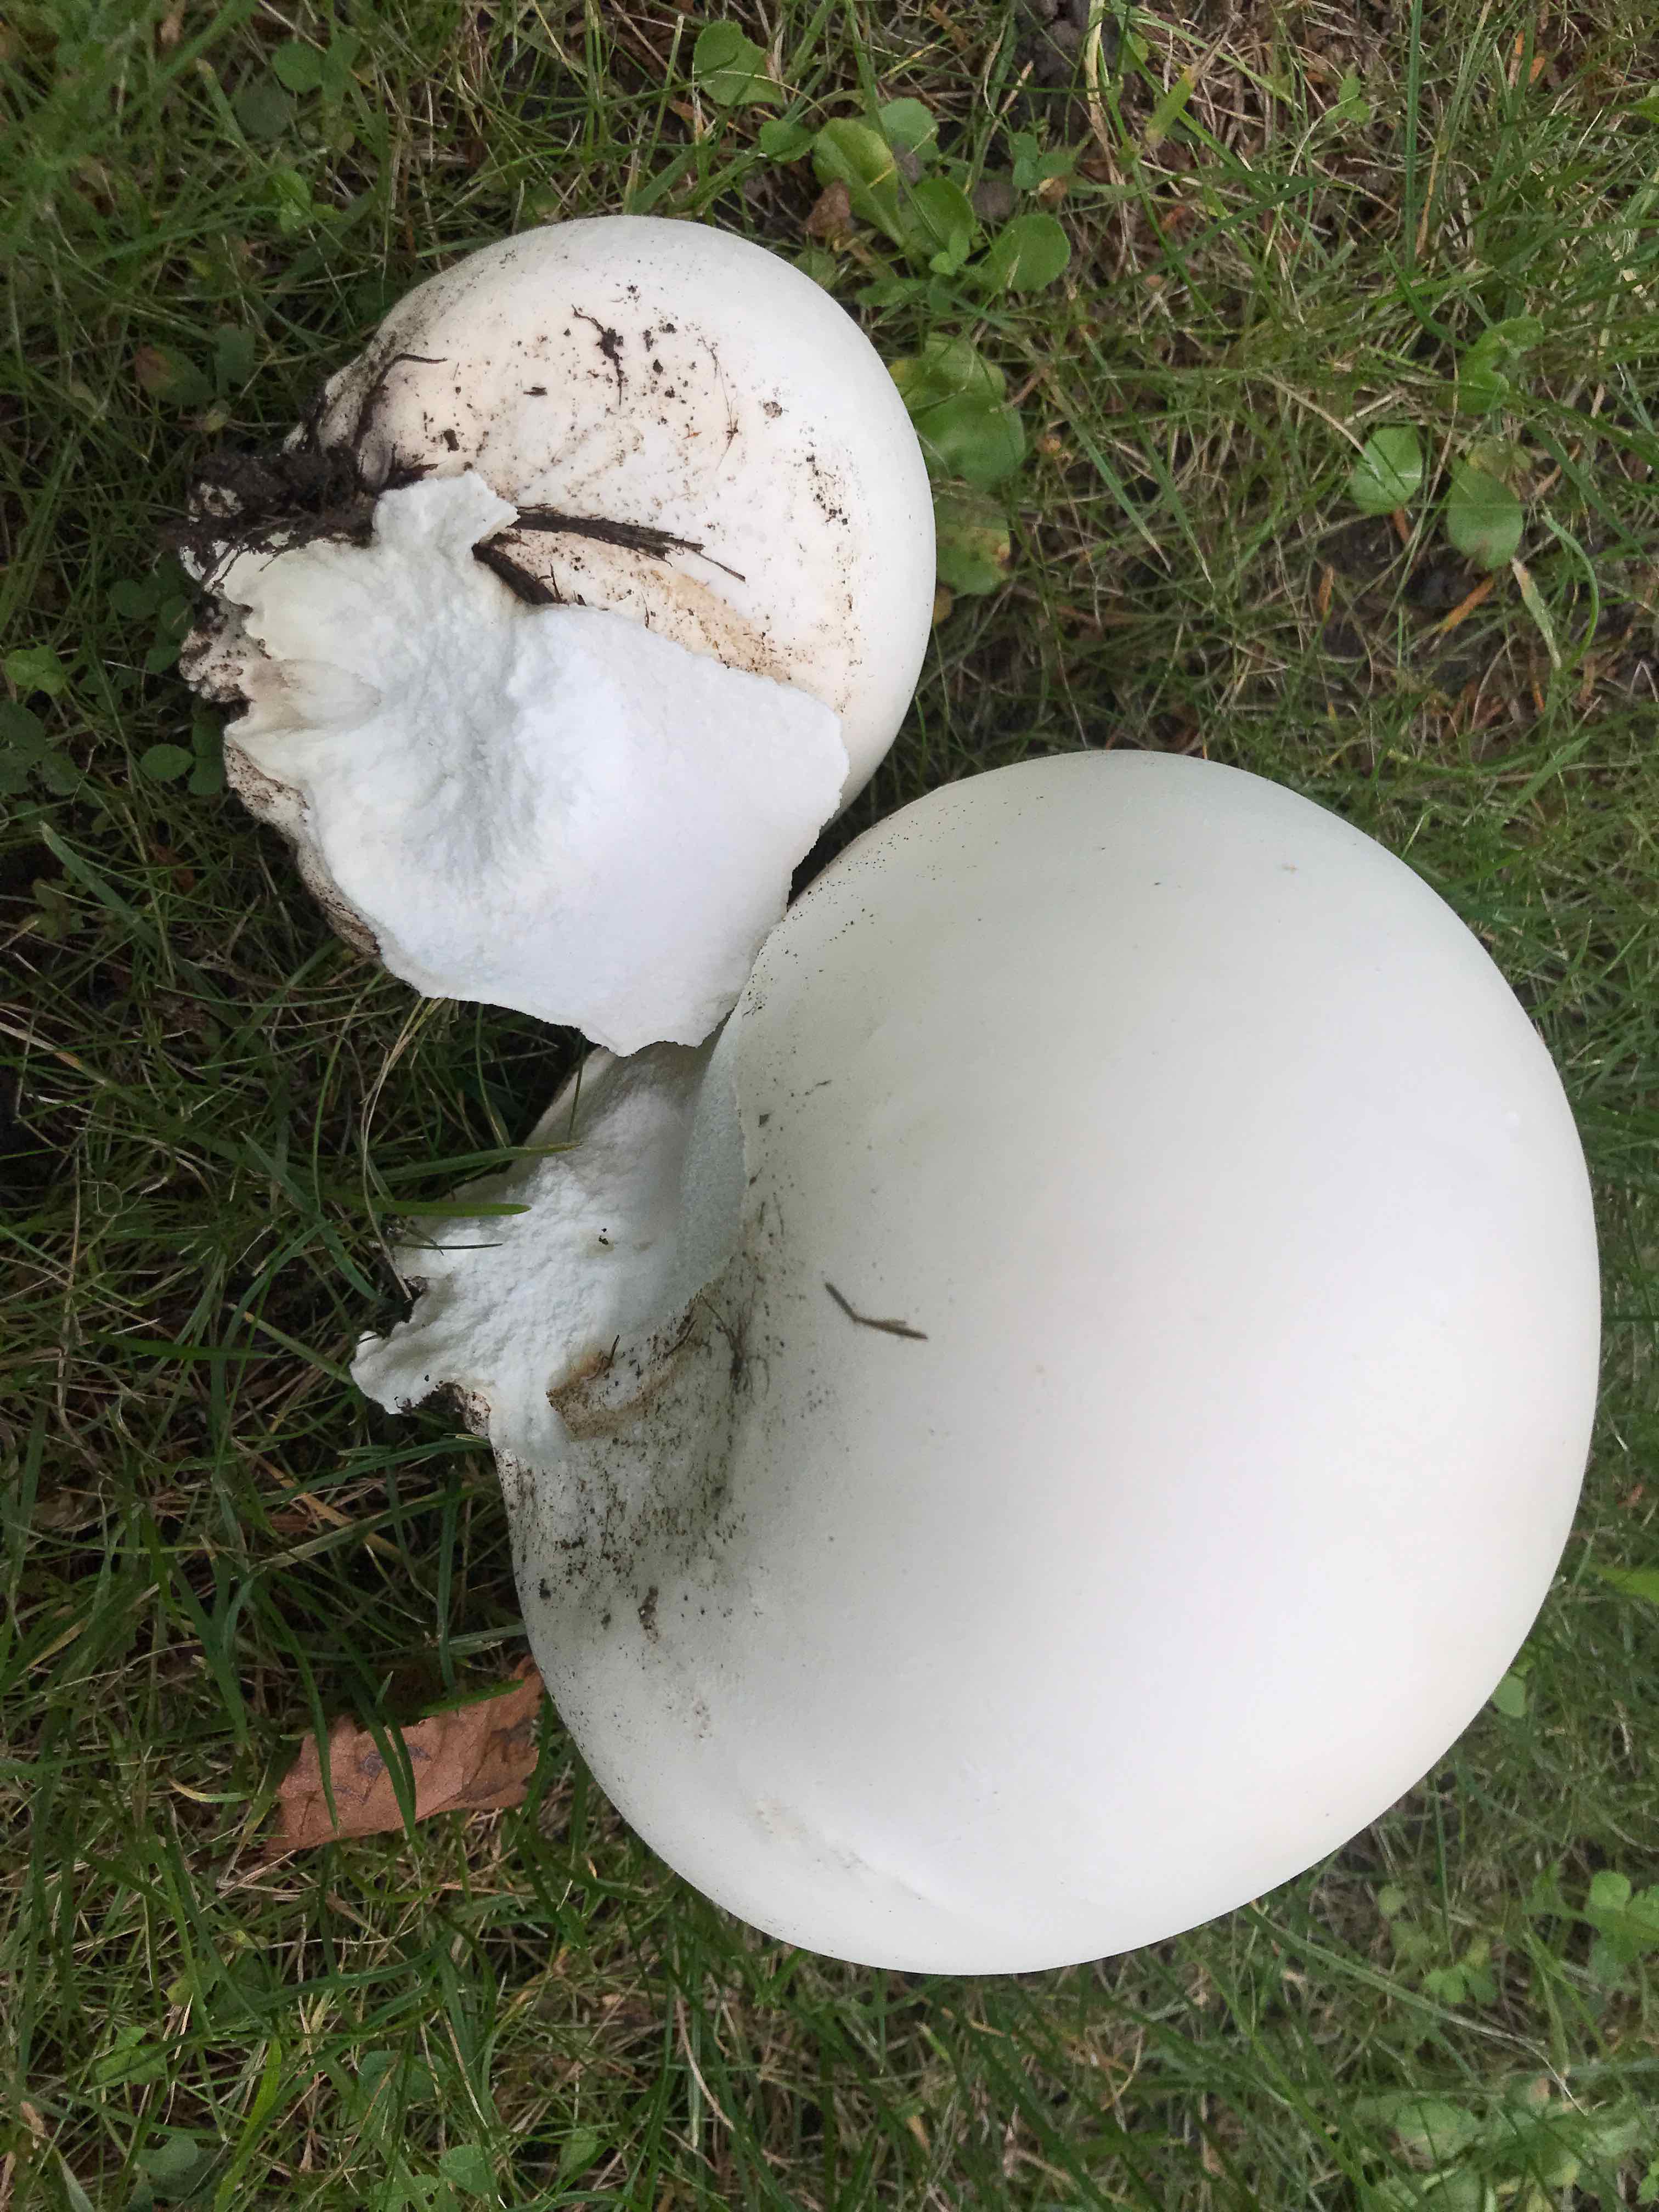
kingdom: Fungi
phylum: Basidiomycota
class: Agaricomycetes
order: Agaricales
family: Lycoperdaceae
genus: Calvatia
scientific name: Calvatia gigantea
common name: kæmpestøvbold
